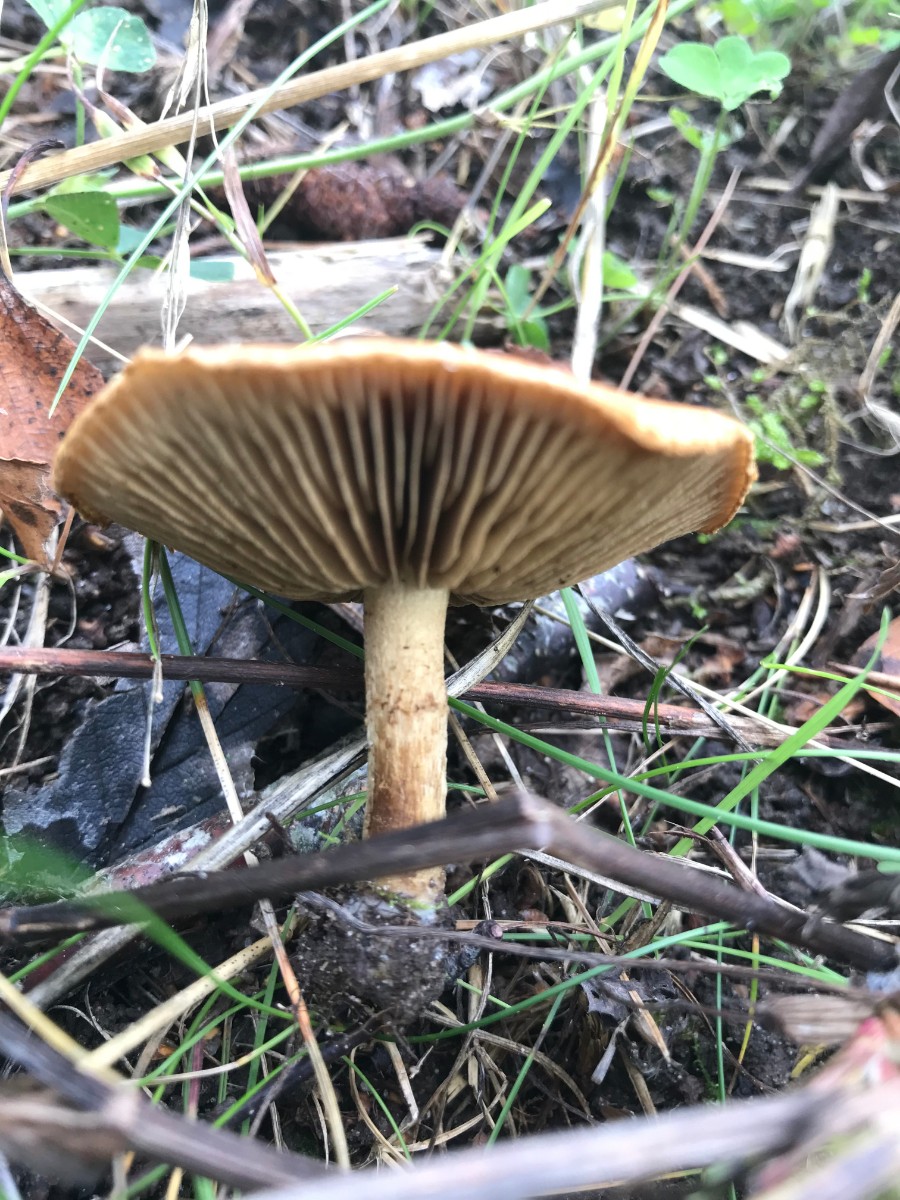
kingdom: Fungi
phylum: Basidiomycota
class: Agaricomycetes
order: Agaricales
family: Inocybaceae
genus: Mallocybe
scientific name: Mallocybe
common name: Trævlhat
